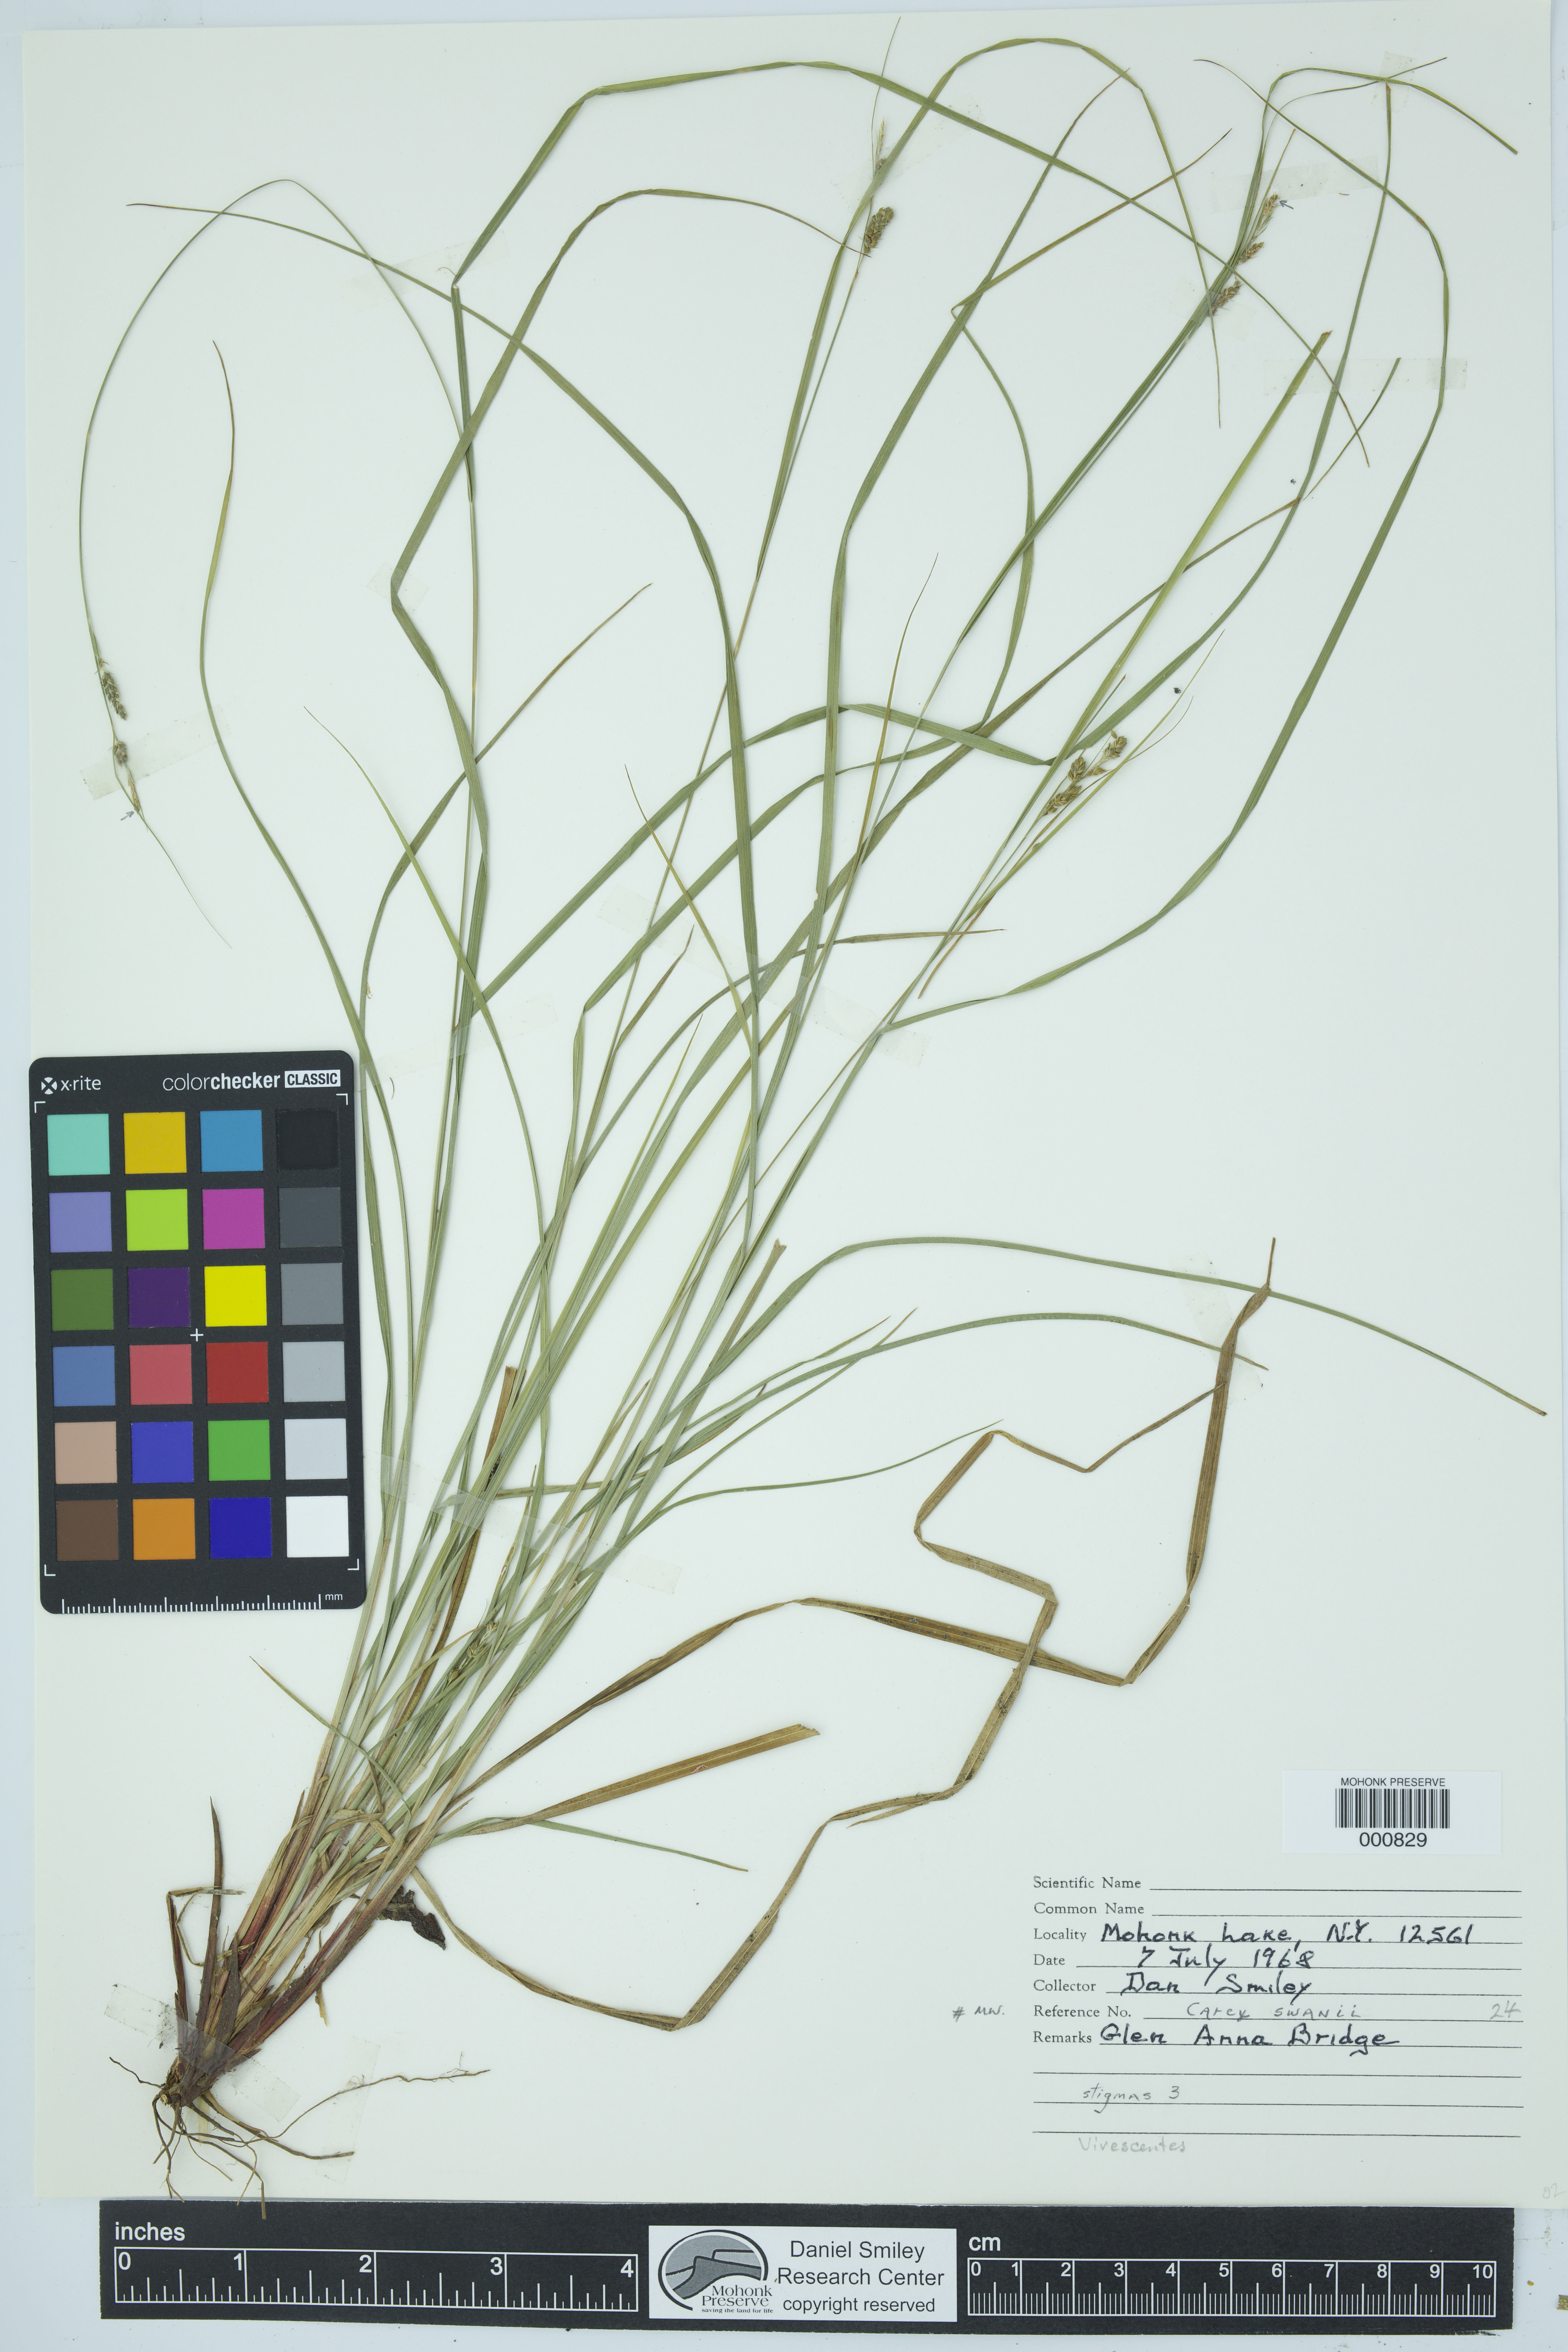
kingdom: Plantae
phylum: Tracheophyta
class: Liliopsida
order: Poales
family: Cyperaceae
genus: Carex
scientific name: Carex swanii
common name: Downy green sedge
